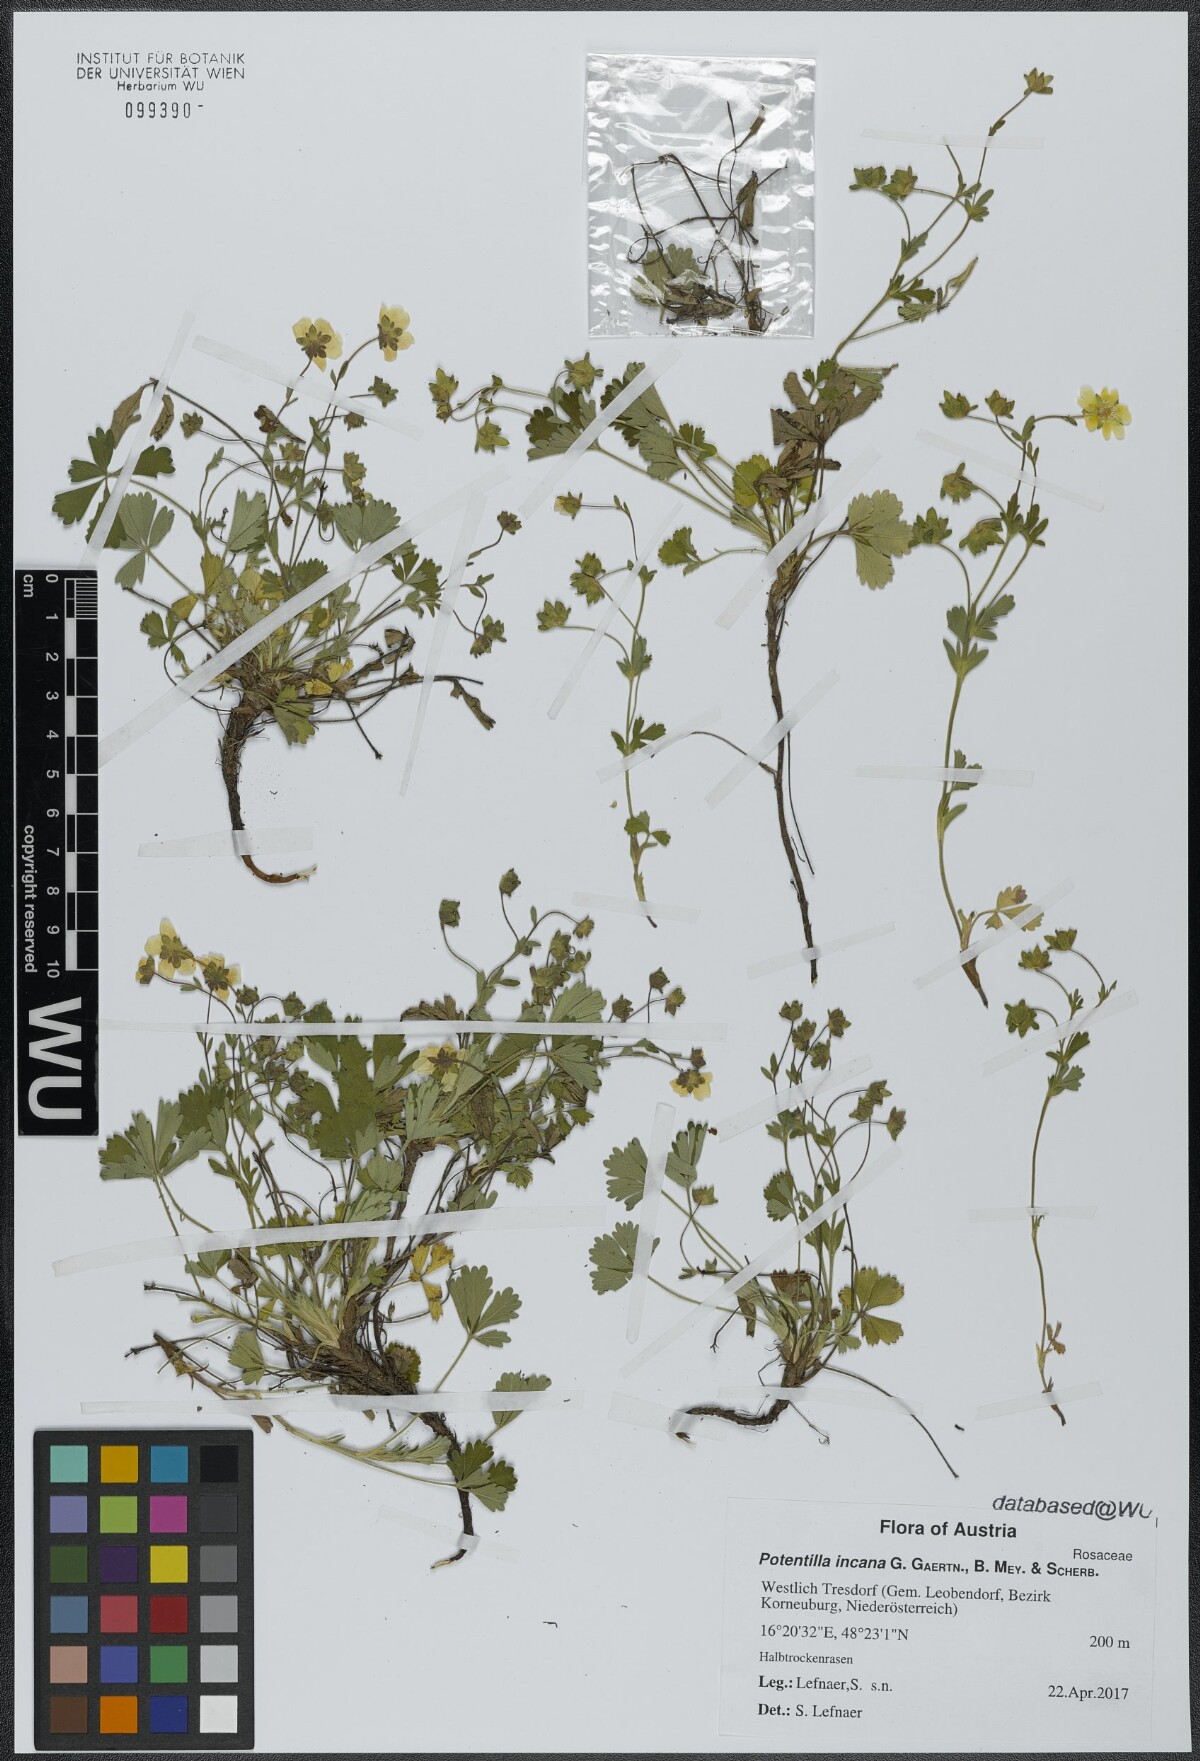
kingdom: Plantae
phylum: Tracheophyta
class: Magnoliopsida
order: Rosales
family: Rosaceae
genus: Potentilla
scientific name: Potentilla cinerea
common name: Ashy cinquefoil
